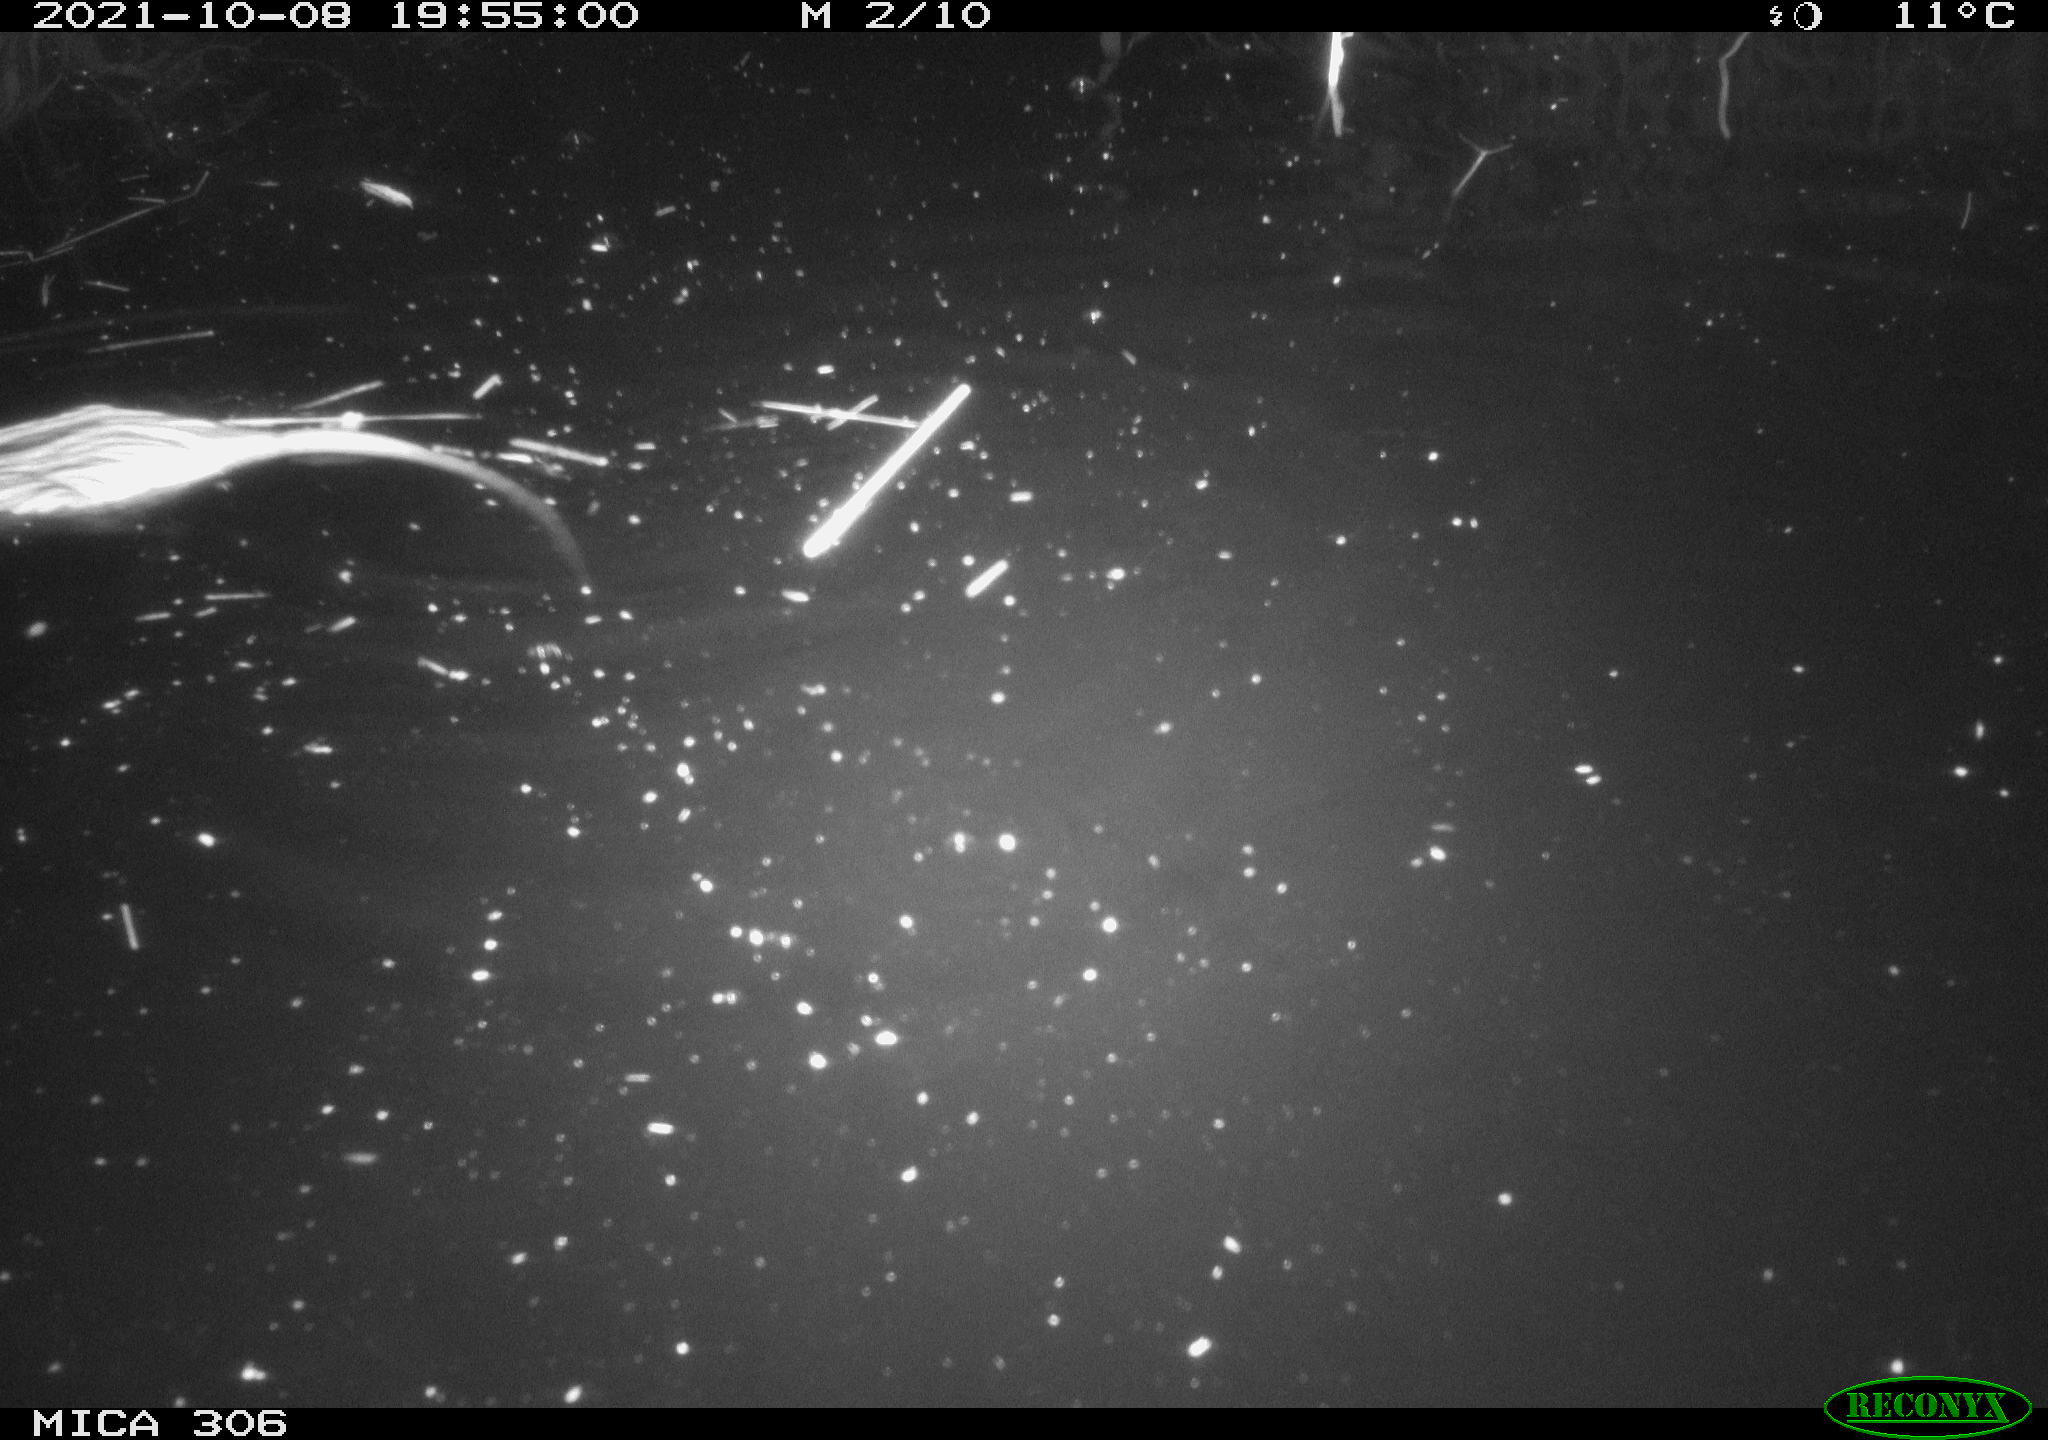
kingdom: Animalia
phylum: Chordata
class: Mammalia
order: Rodentia
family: Cricetidae
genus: Ondatra
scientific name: Ondatra zibethicus
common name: Muskrat
